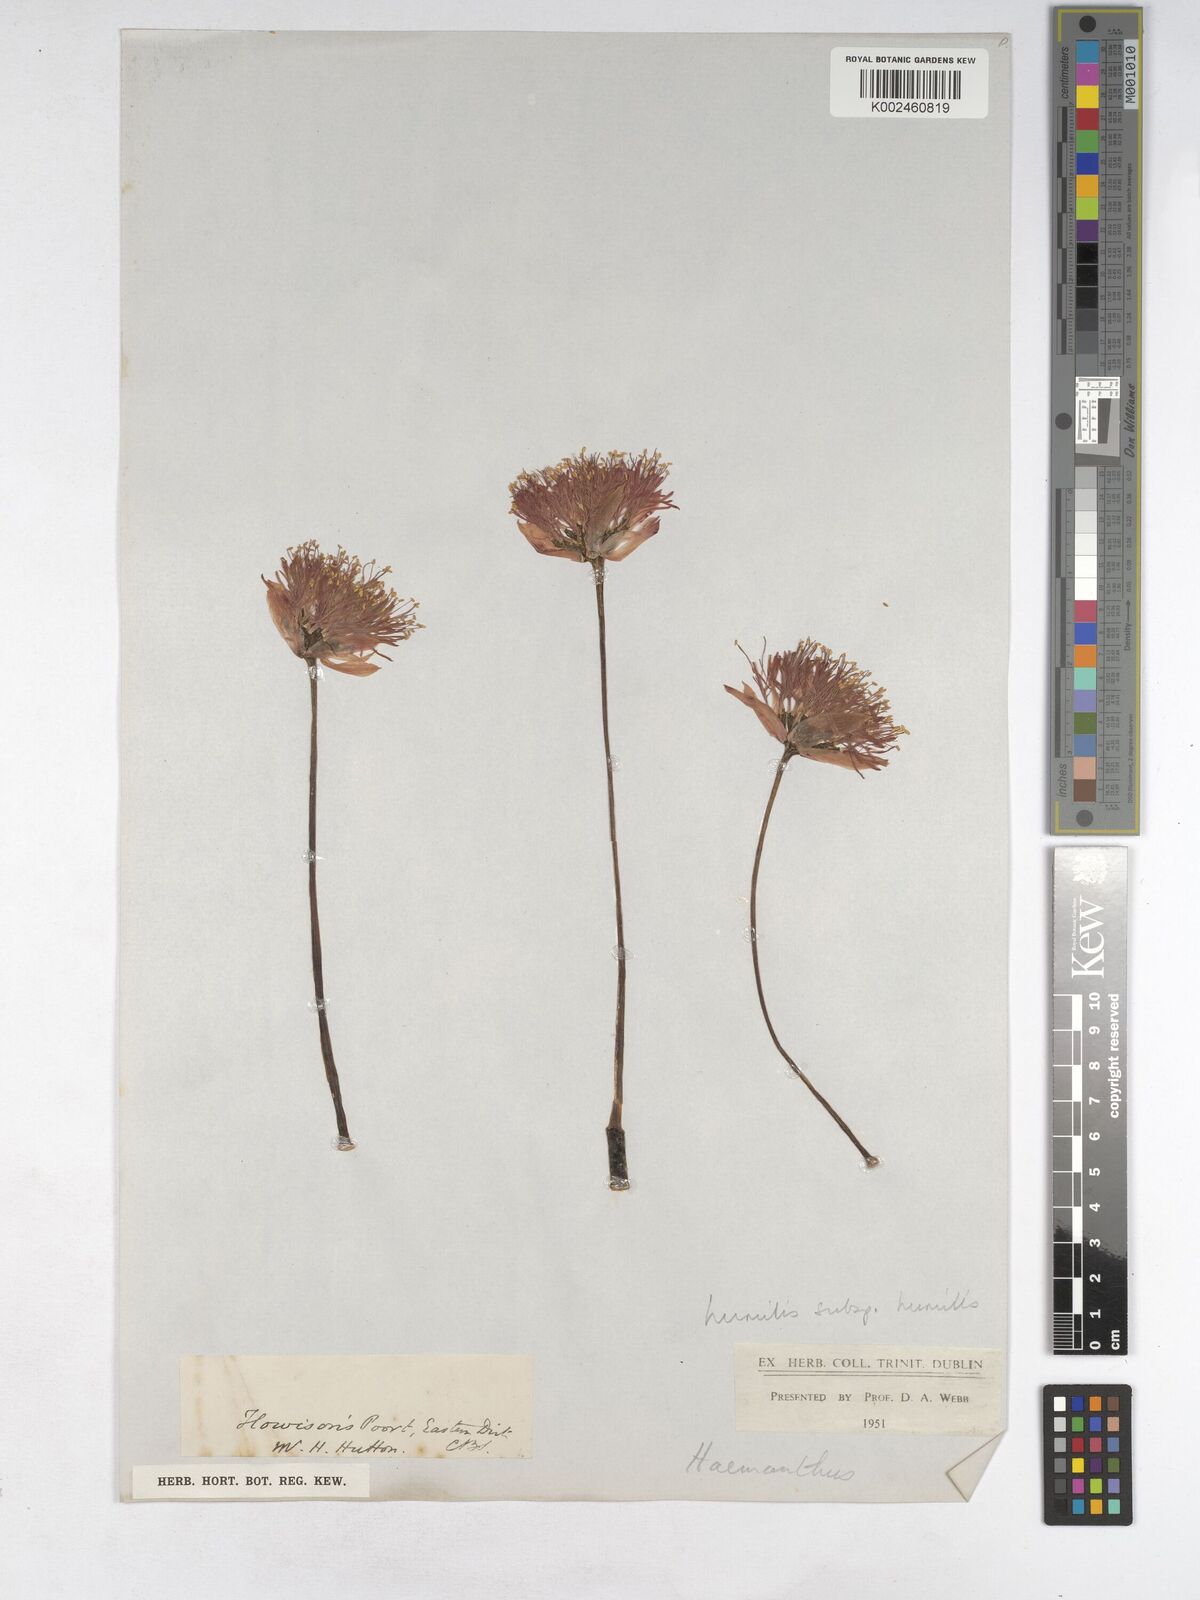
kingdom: Plantae
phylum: Tracheophyta
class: Liliopsida
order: Asparagales
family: Amaryllidaceae
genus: Haemanthus
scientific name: Haemanthus humilis
